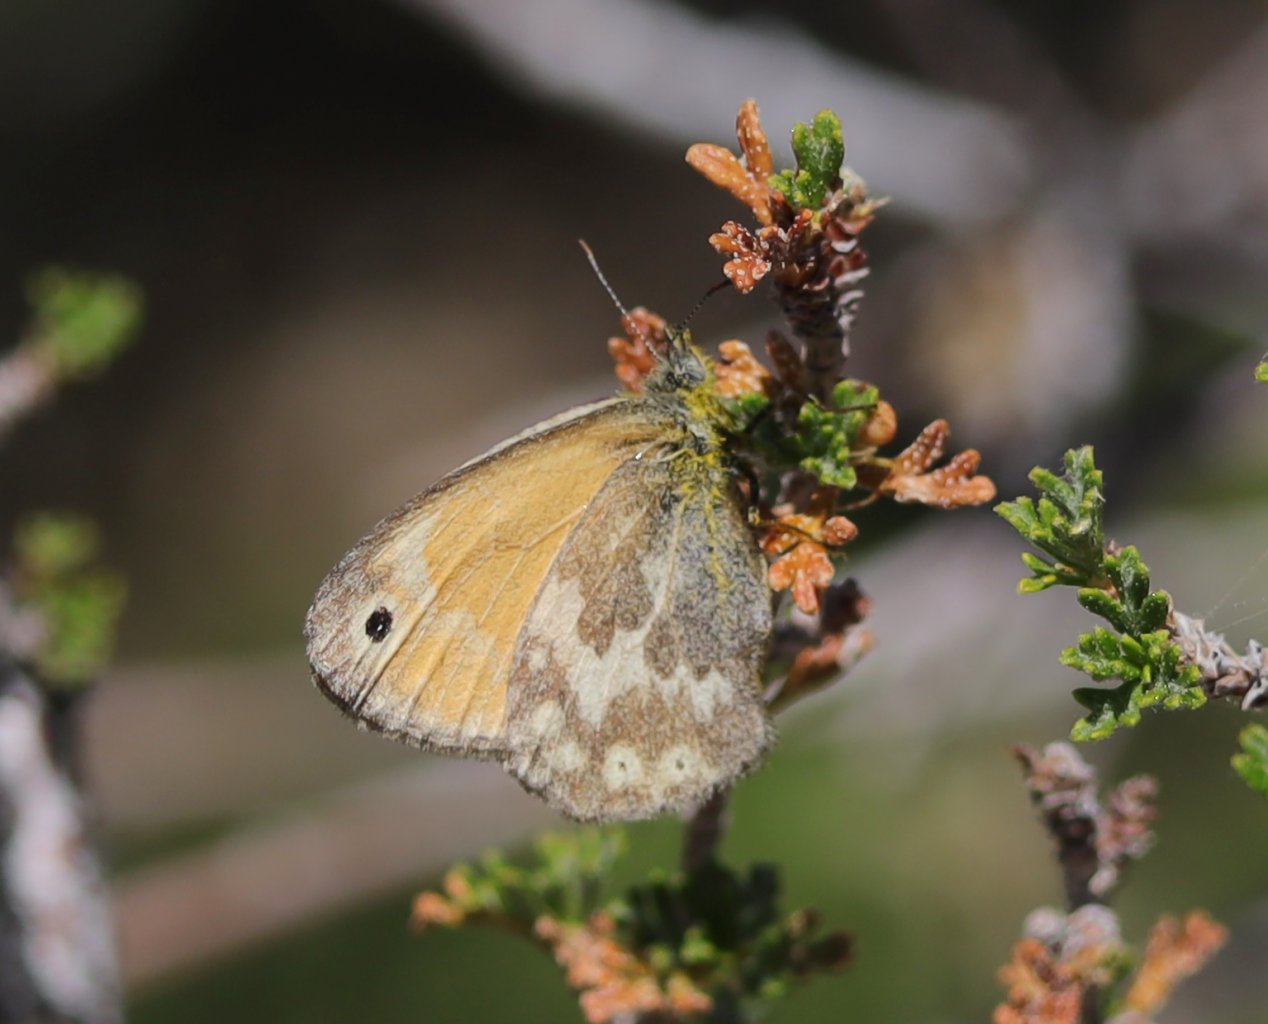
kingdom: Animalia
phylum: Arthropoda
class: Insecta
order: Lepidoptera
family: Nymphalidae
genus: Coenonympha
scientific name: Coenonympha tullia
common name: Large Heath
